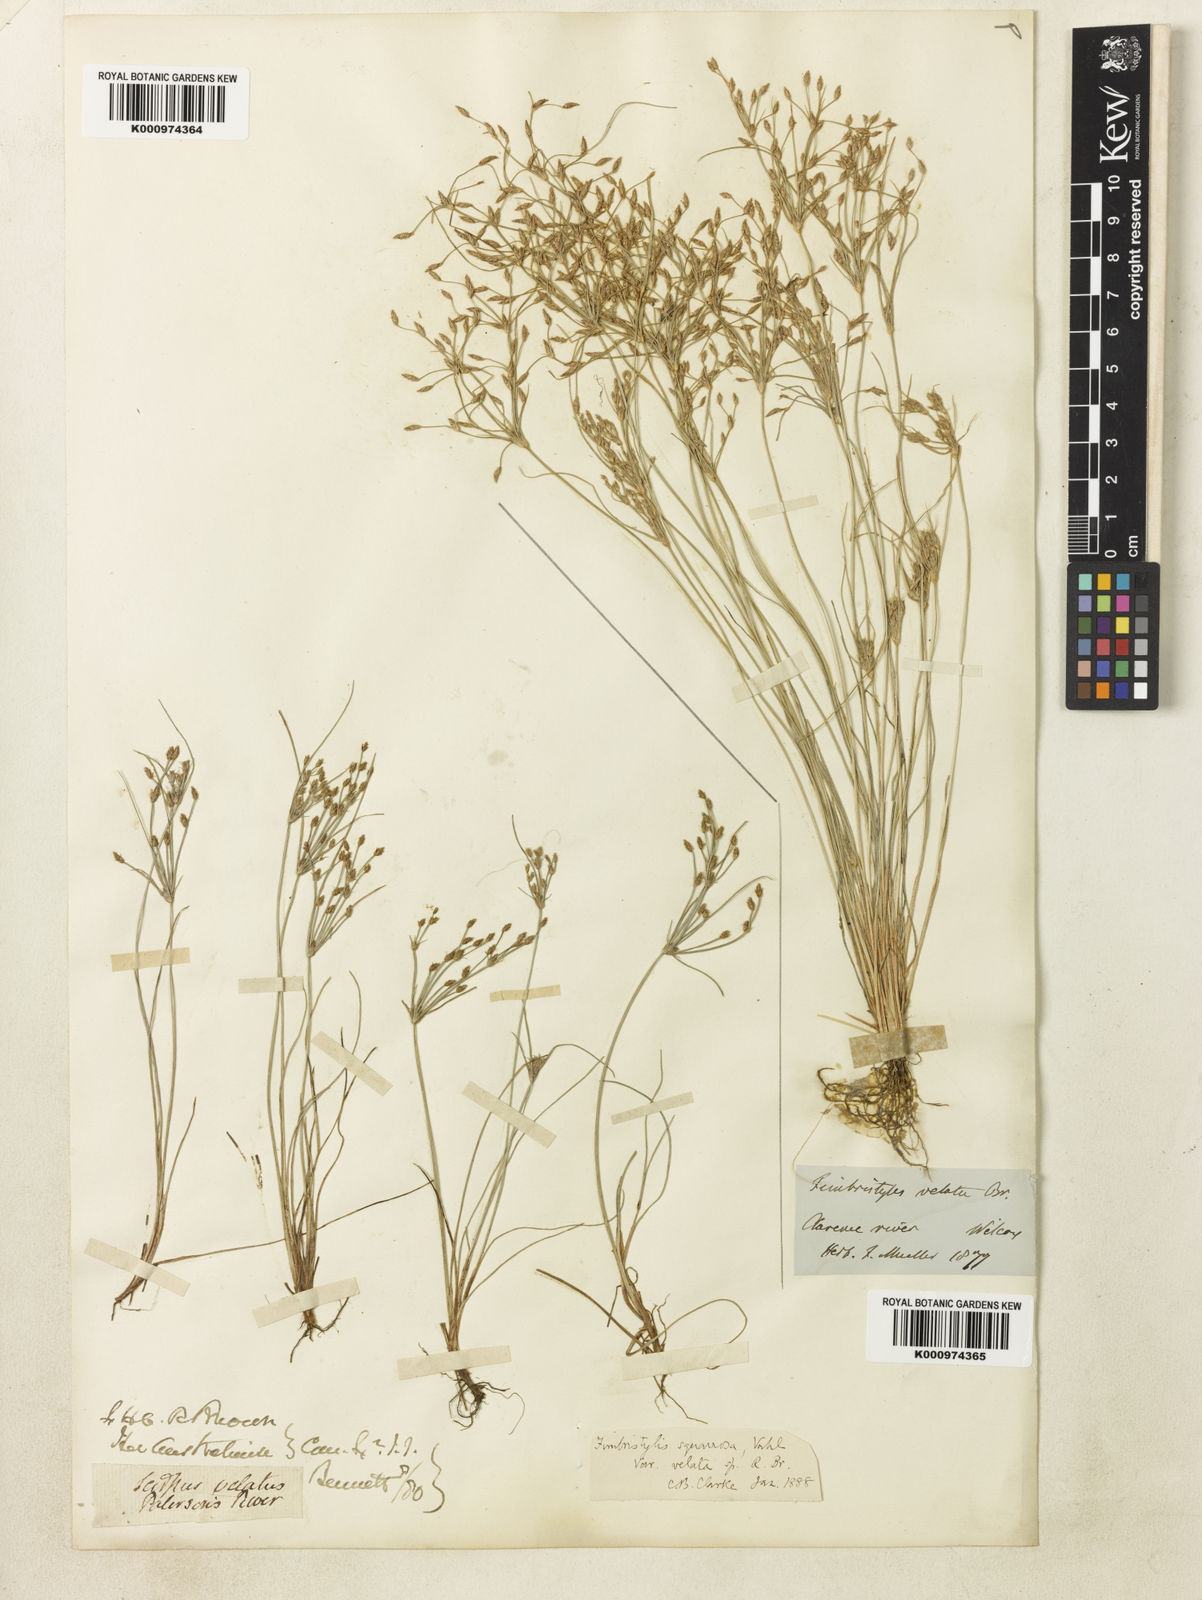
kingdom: Plantae
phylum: Tracheophyta
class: Liliopsida
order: Poales
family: Cyperaceae
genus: Fimbristylis
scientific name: Fimbristylis velata
